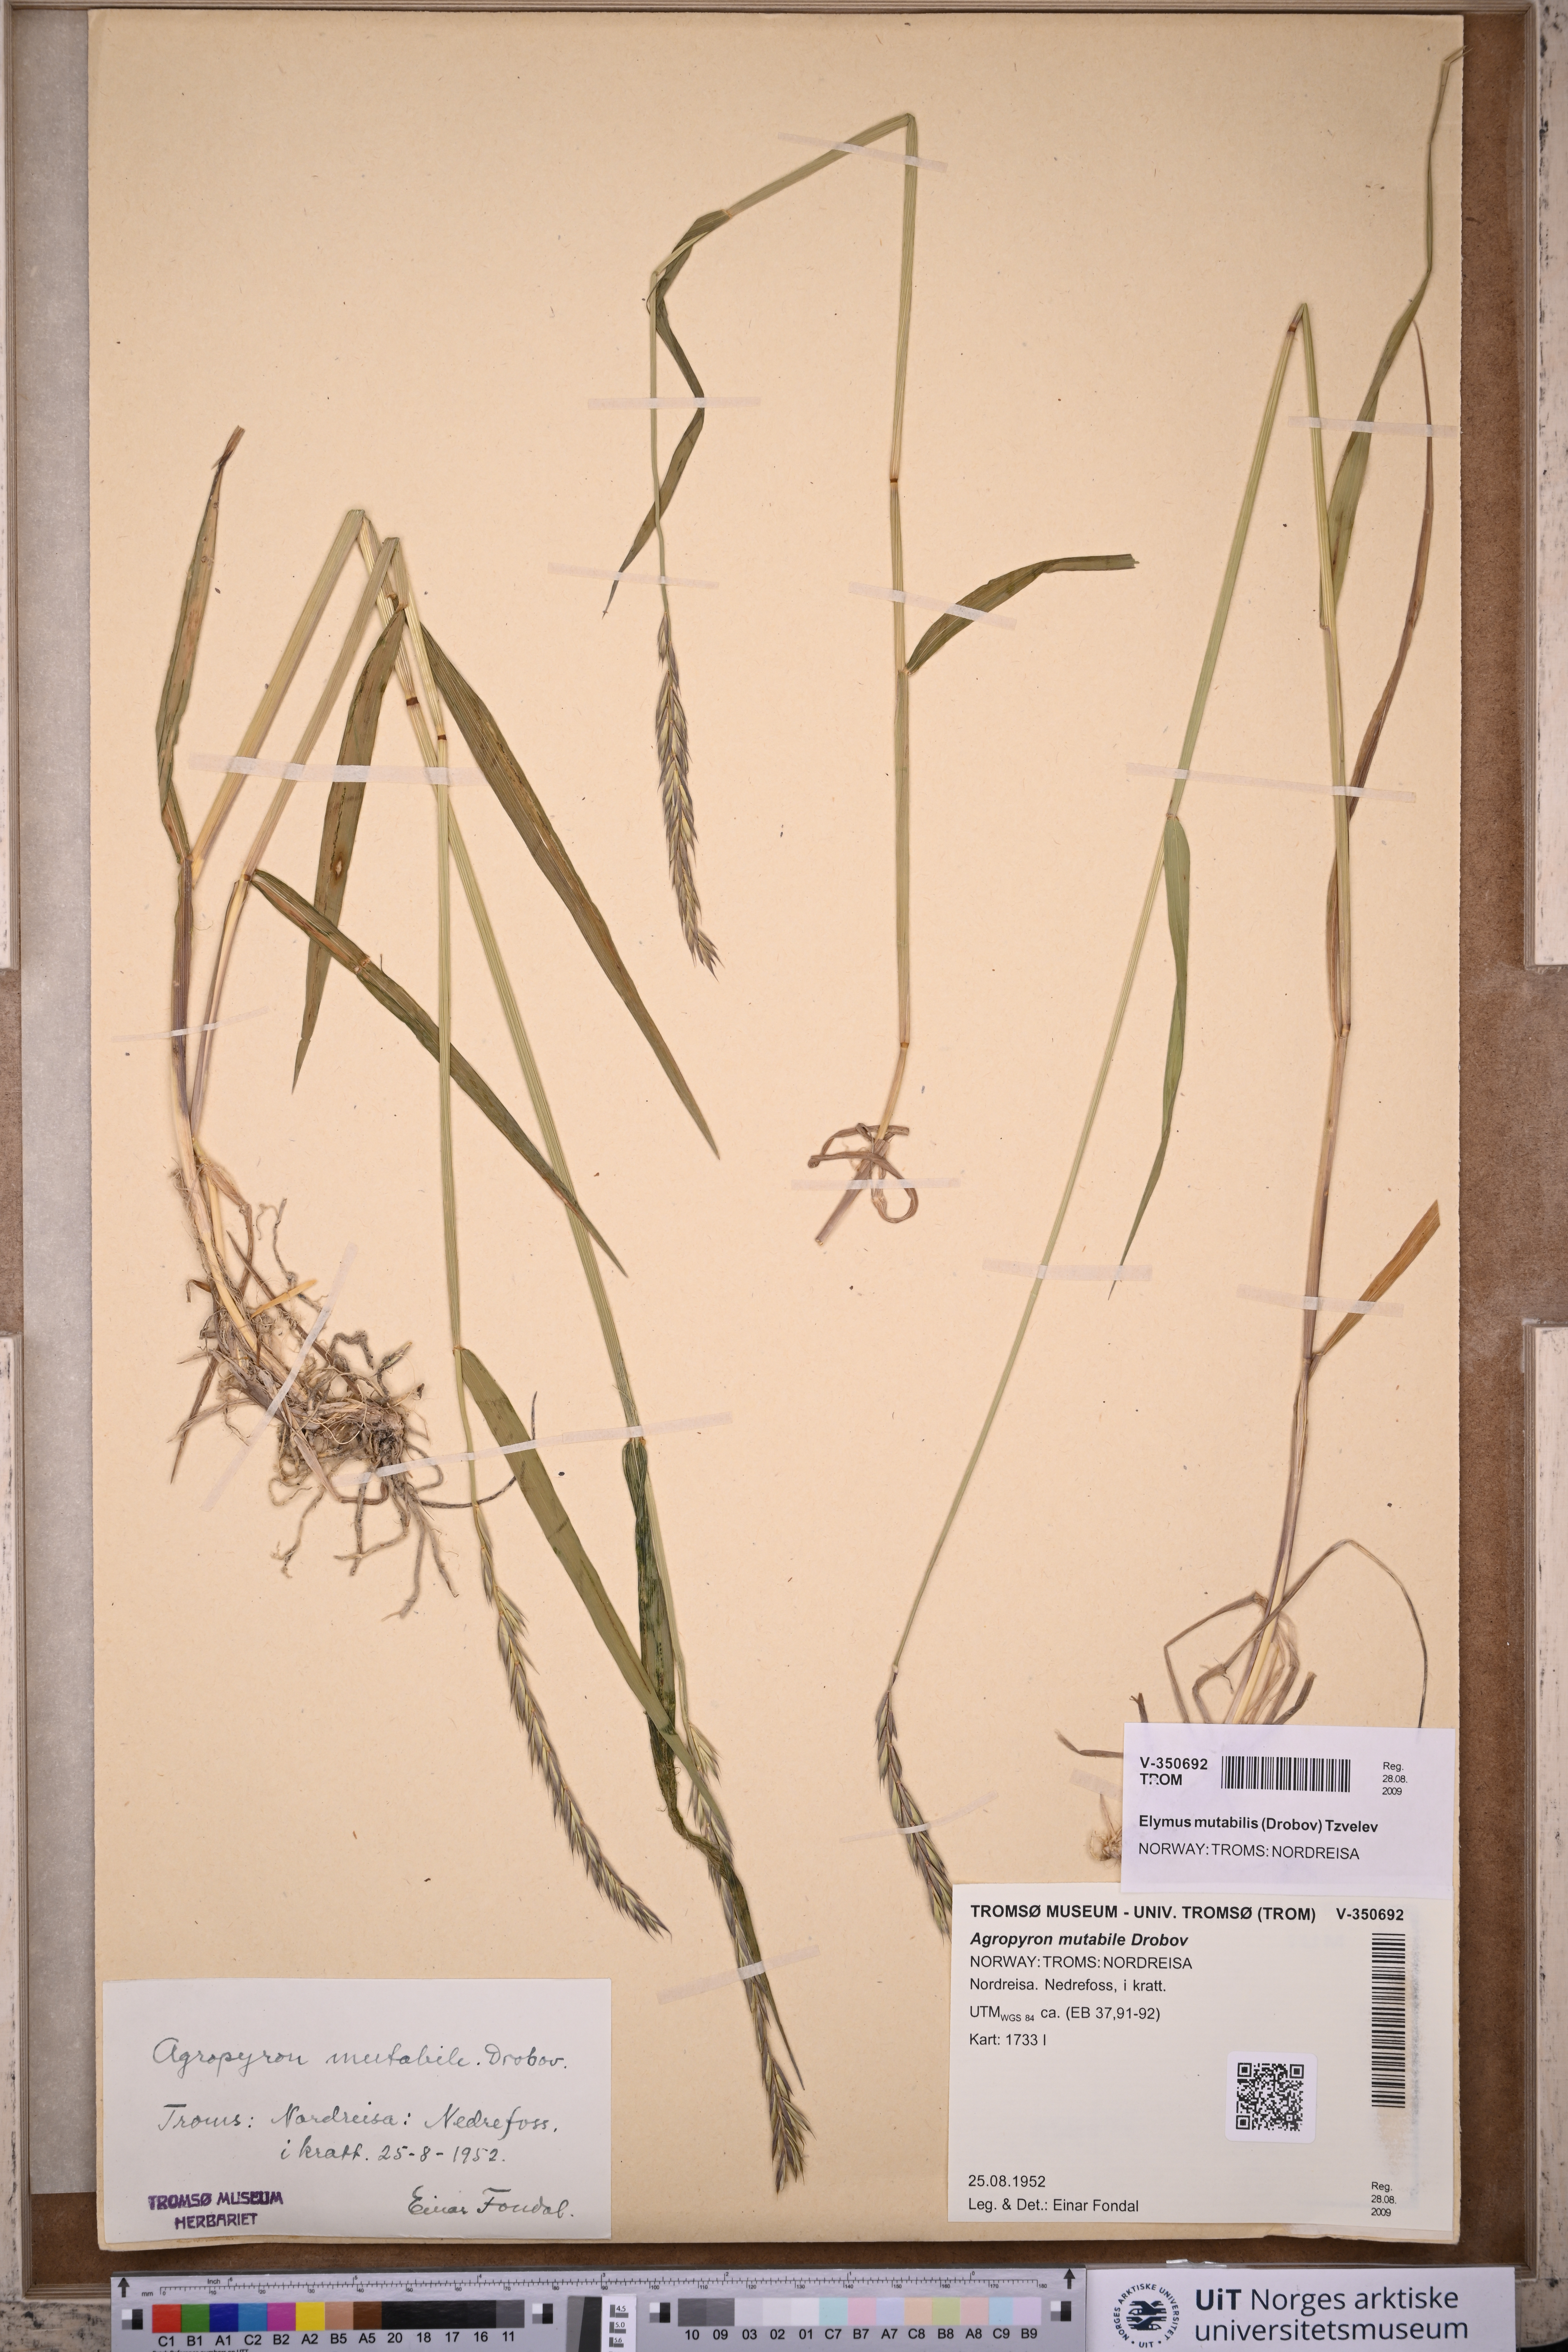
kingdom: Plantae
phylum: Tracheophyta
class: Liliopsida
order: Poales
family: Poaceae
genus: Elymus
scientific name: Elymus mutabilis
